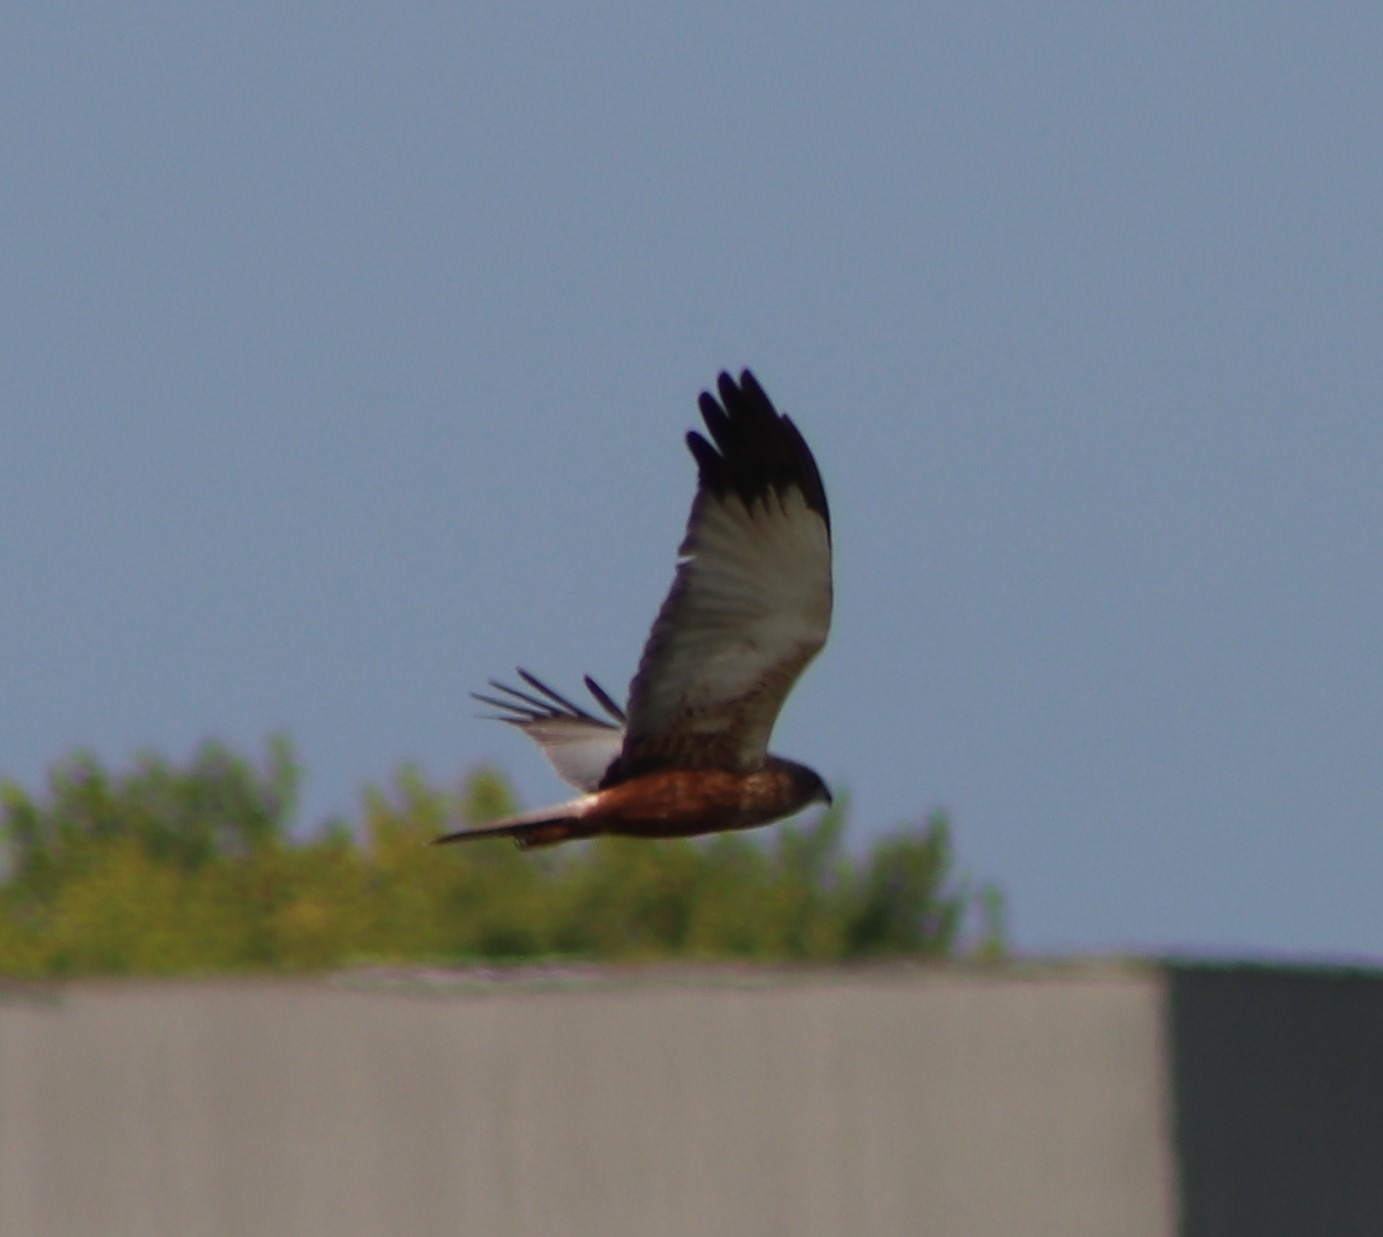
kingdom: Animalia
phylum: Chordata
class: Aves
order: Accipitriformes
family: Accipitridae
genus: Circus
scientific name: Circus aeruginosus
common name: Rørhøg
